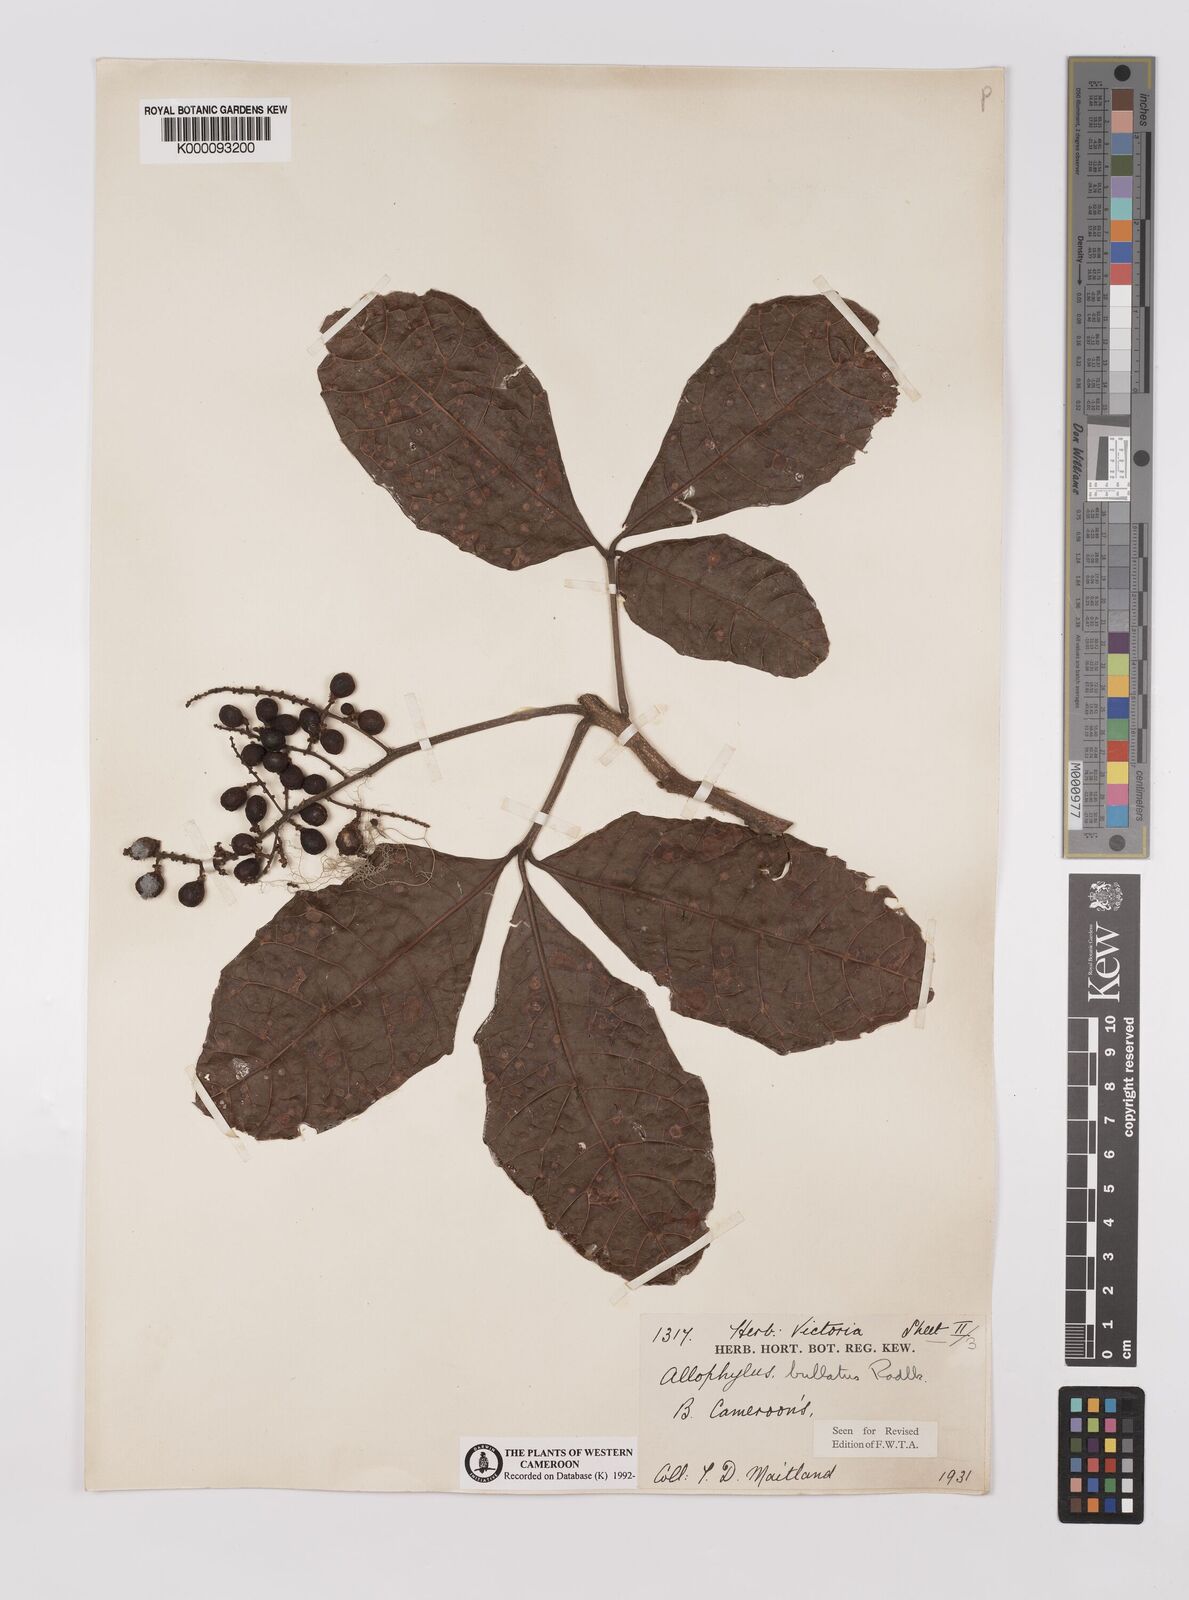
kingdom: Plantae
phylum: Tracheophyta
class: Magnoliopsida
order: Sapindales
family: Sapindaceae
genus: Allophylus
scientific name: Allophylus bullatus
